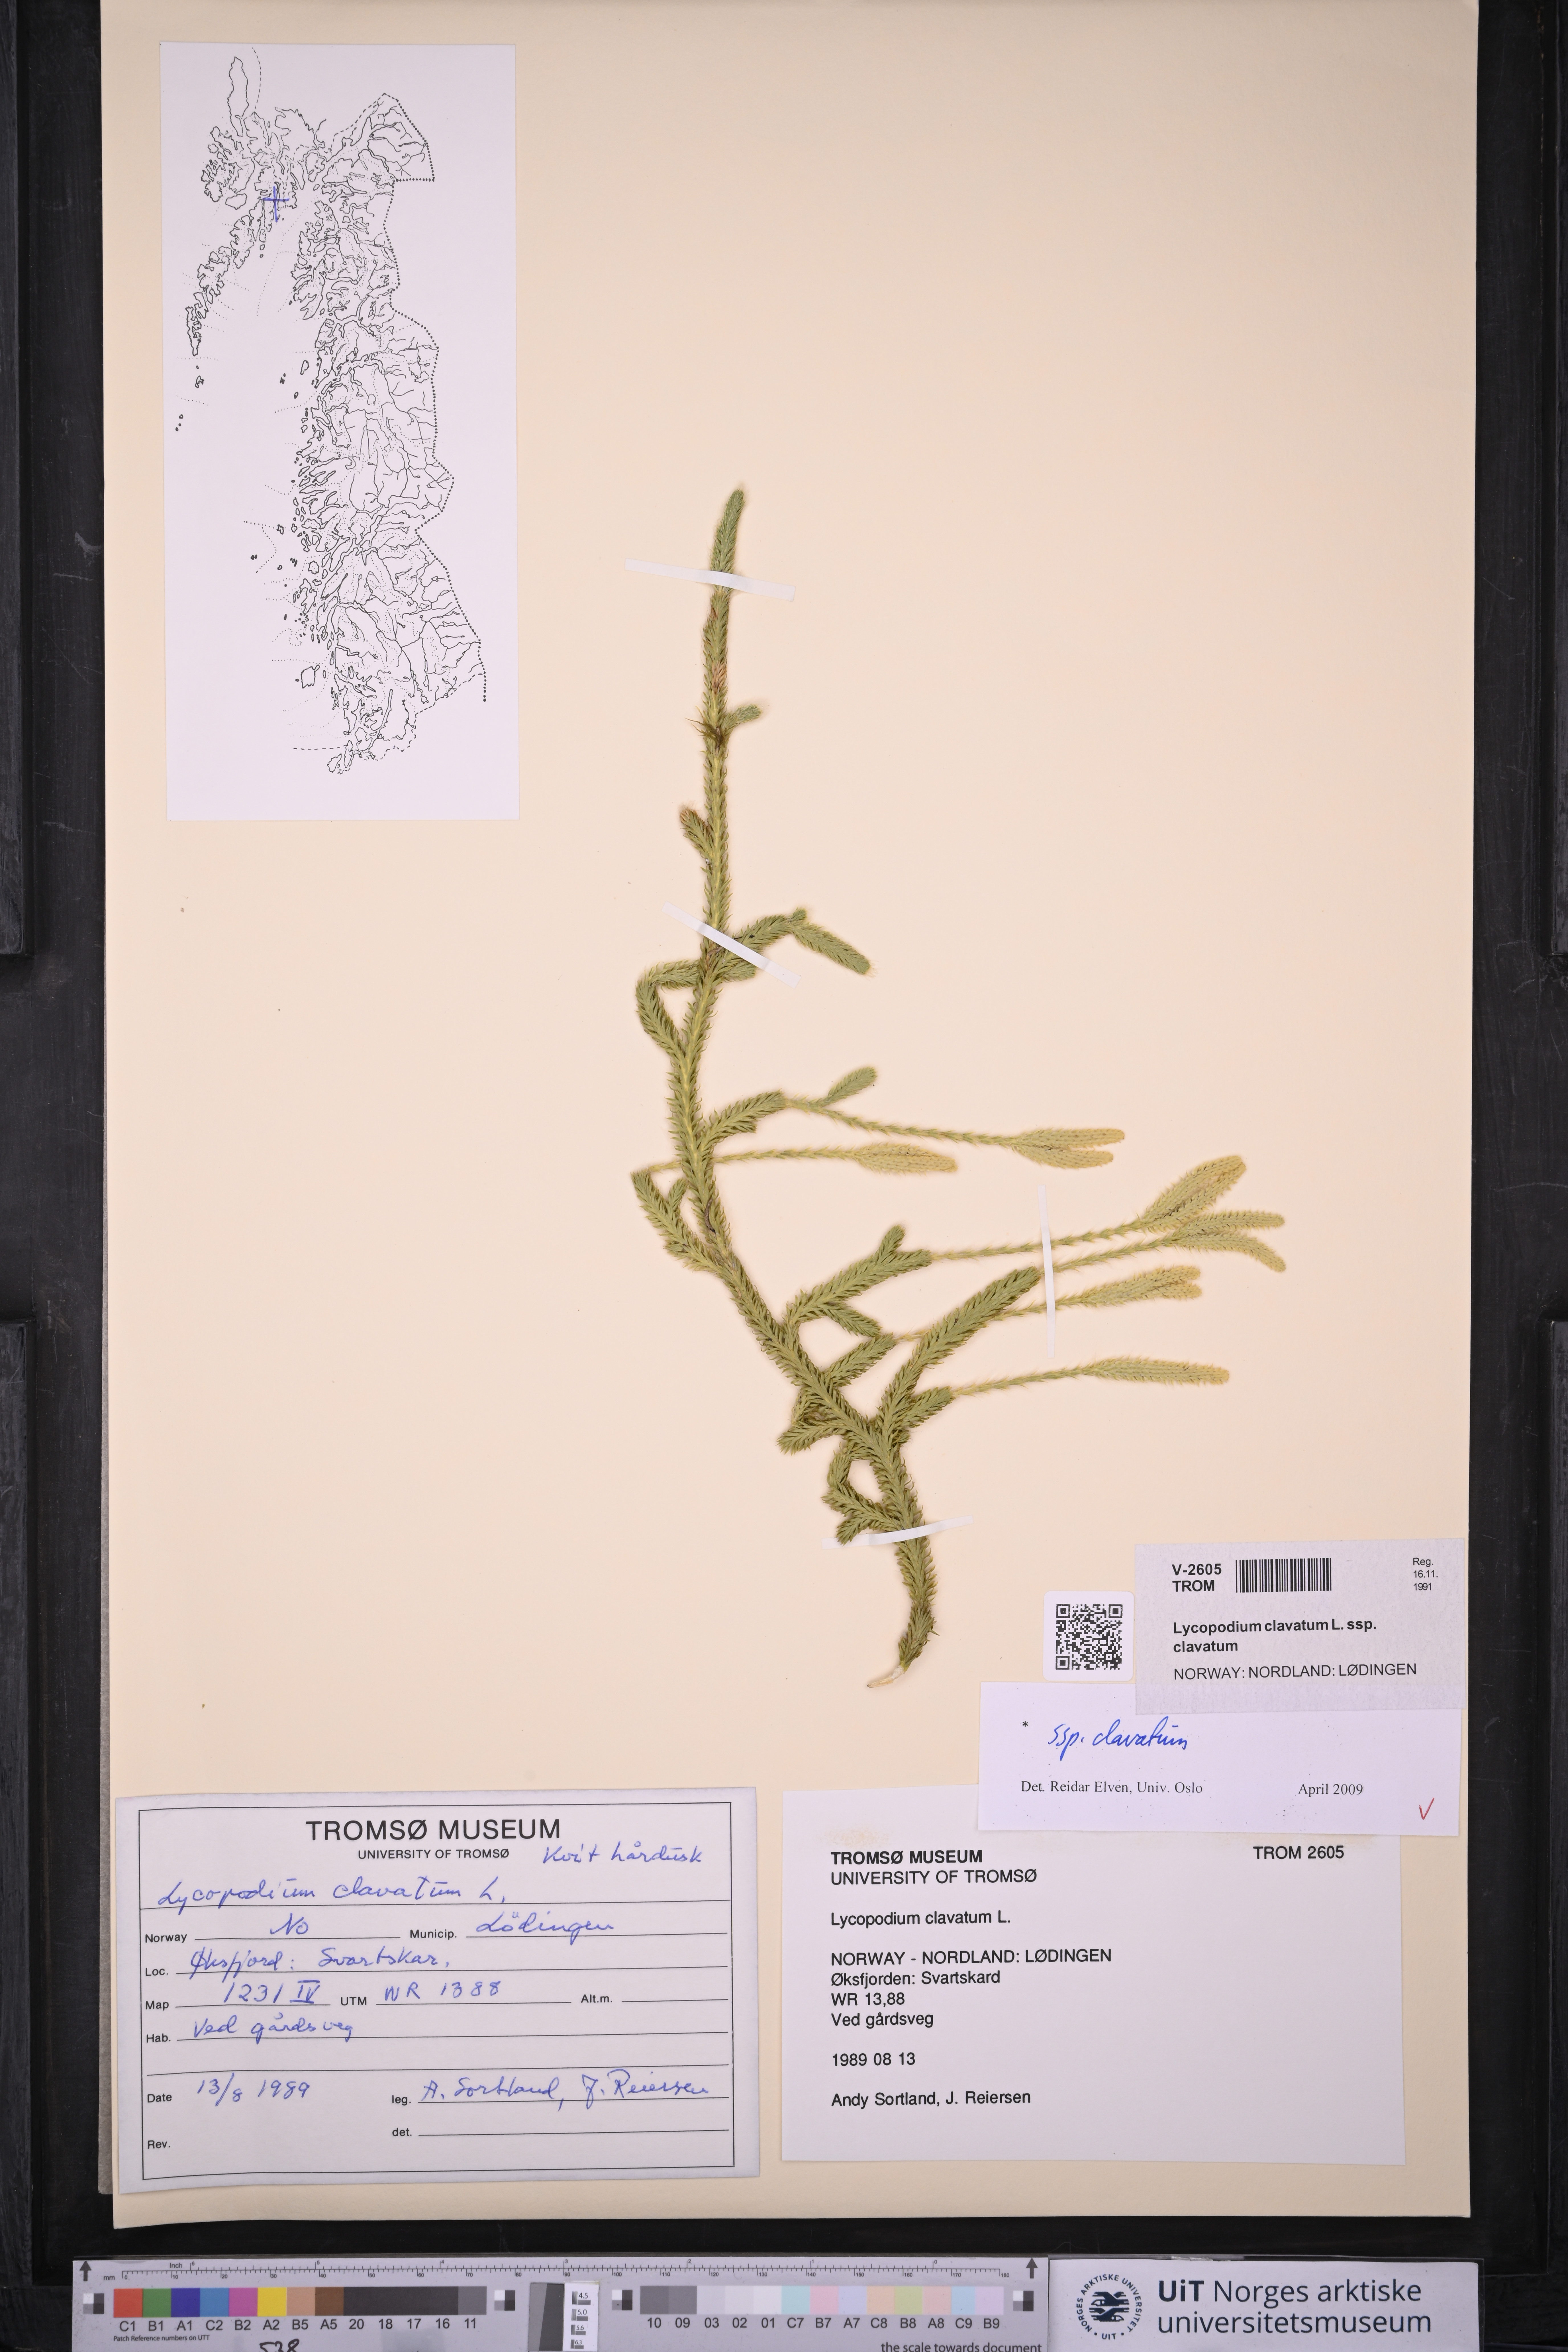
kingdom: Plantae
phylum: Tracheophyta
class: Lycopodiopsida
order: Lycopodiales
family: Lycopodiaceae
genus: Lycopodium
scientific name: Lycopodium clavatum
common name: Stag's-horn clubmoss
